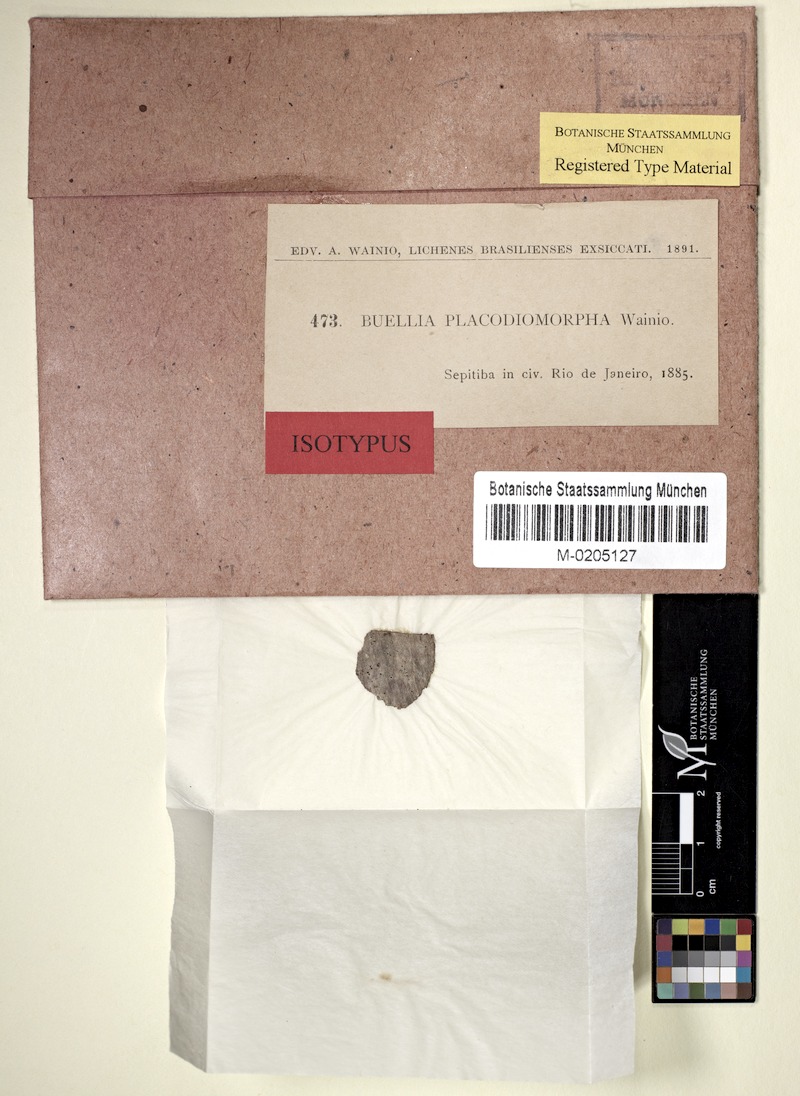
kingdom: Fungi
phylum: Ascomycota
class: Lecanoromycetes
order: Caliciales
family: Caliciaceae
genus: Orcularia
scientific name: Orcularia placodiomorpha
